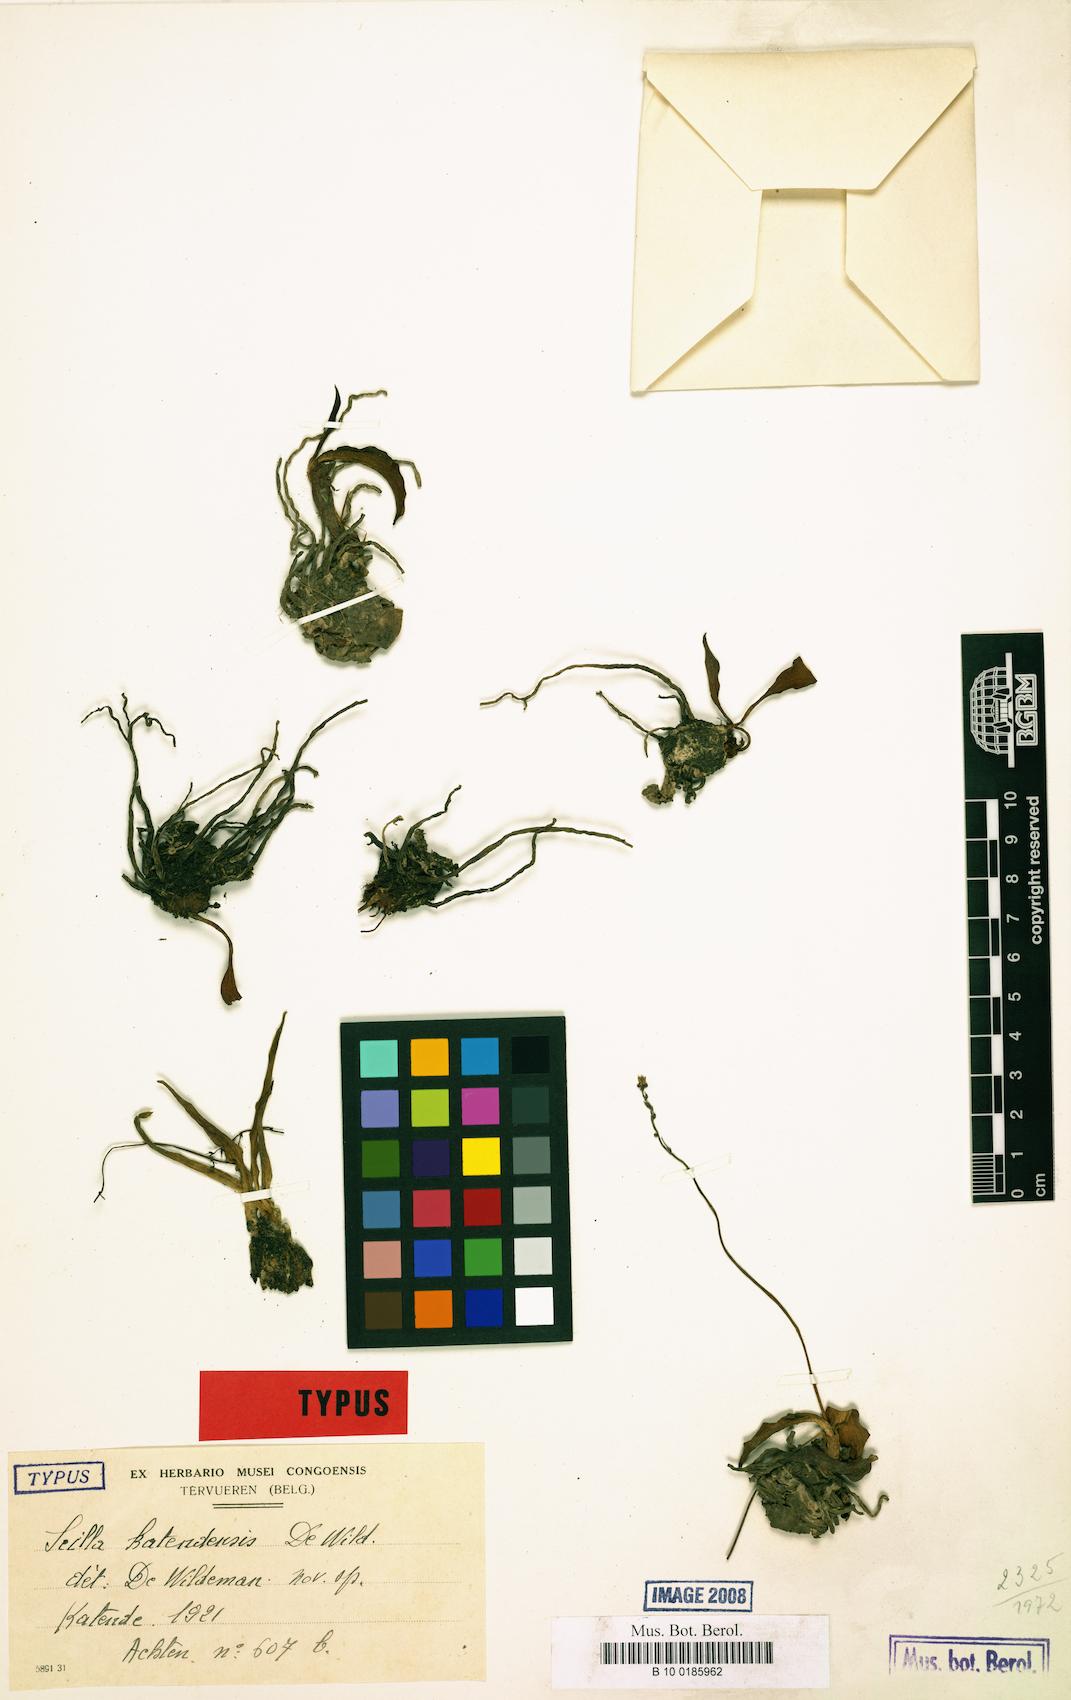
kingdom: Plantae
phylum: Tracheophyta
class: Liliopsida
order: Asparagales
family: Asparagaceae
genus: Scilla
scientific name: Scilla katendensis
